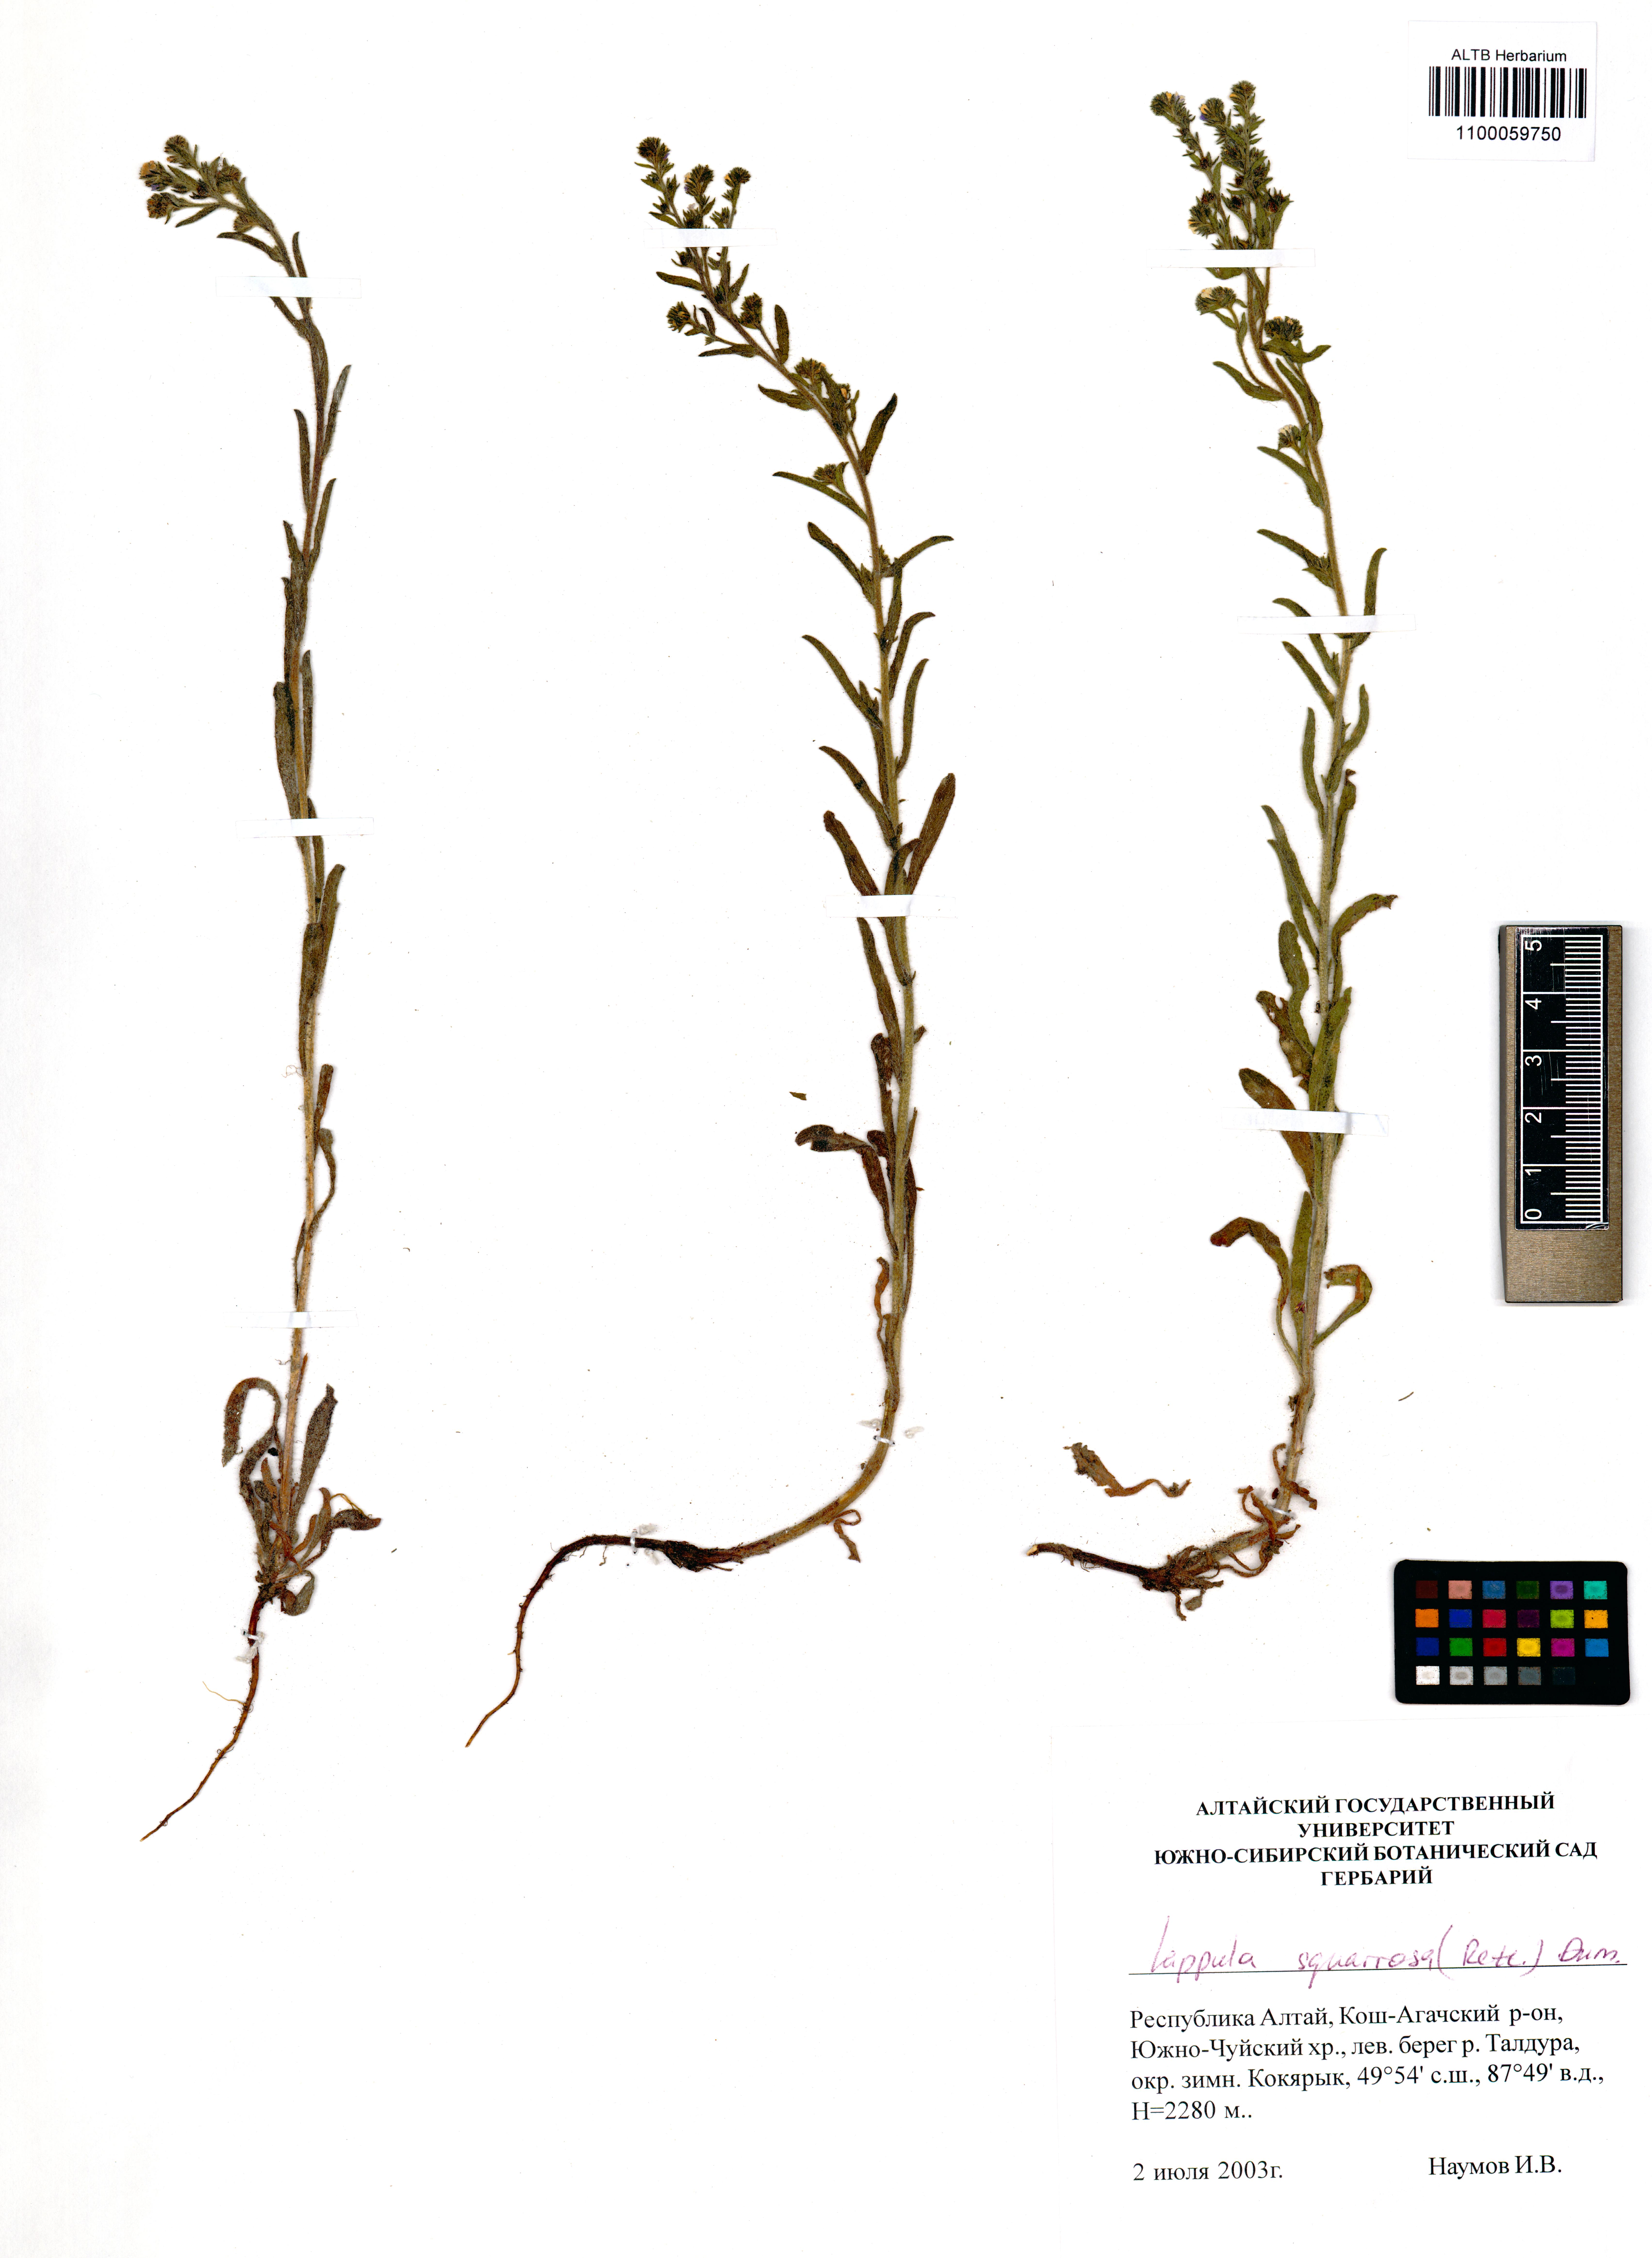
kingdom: Plantae
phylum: Tracheophyta
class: Magnoliopsida
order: Boraginales
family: Boraginaceae
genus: Lappula
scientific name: Lappula squarrosa
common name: European stickseed
